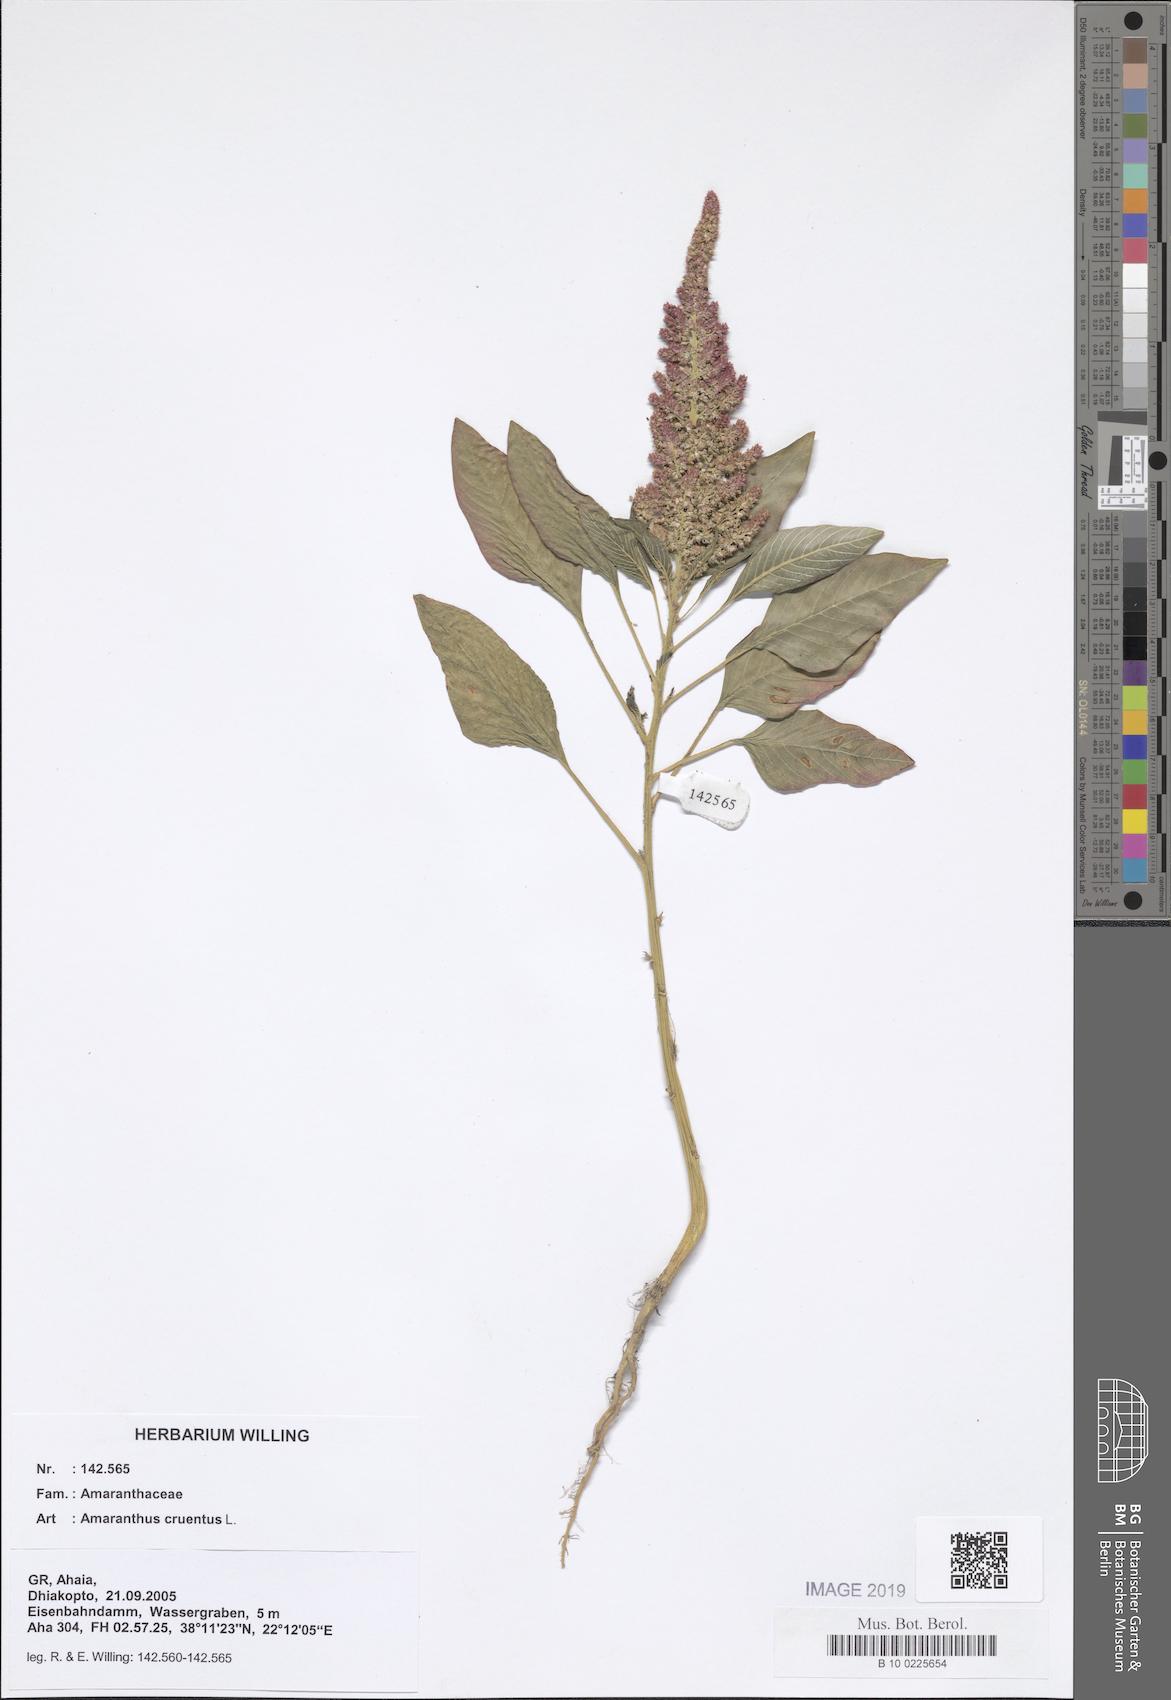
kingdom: Plantae
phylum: Tracheophyta
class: Magnoliopsida
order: Caryophyllales
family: Amaranthaceae
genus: Amaranthus
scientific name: Amaranthus cruentus
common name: Purple amaranth
